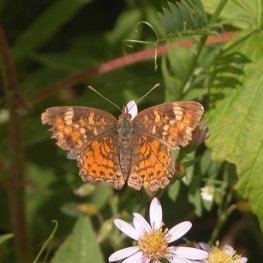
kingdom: Animalia
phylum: Arthropoda
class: Insecta
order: Lepidoptera
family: Nymphalidae
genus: Phyciodes
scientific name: Phyciodes tharos
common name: Northern Crescent
